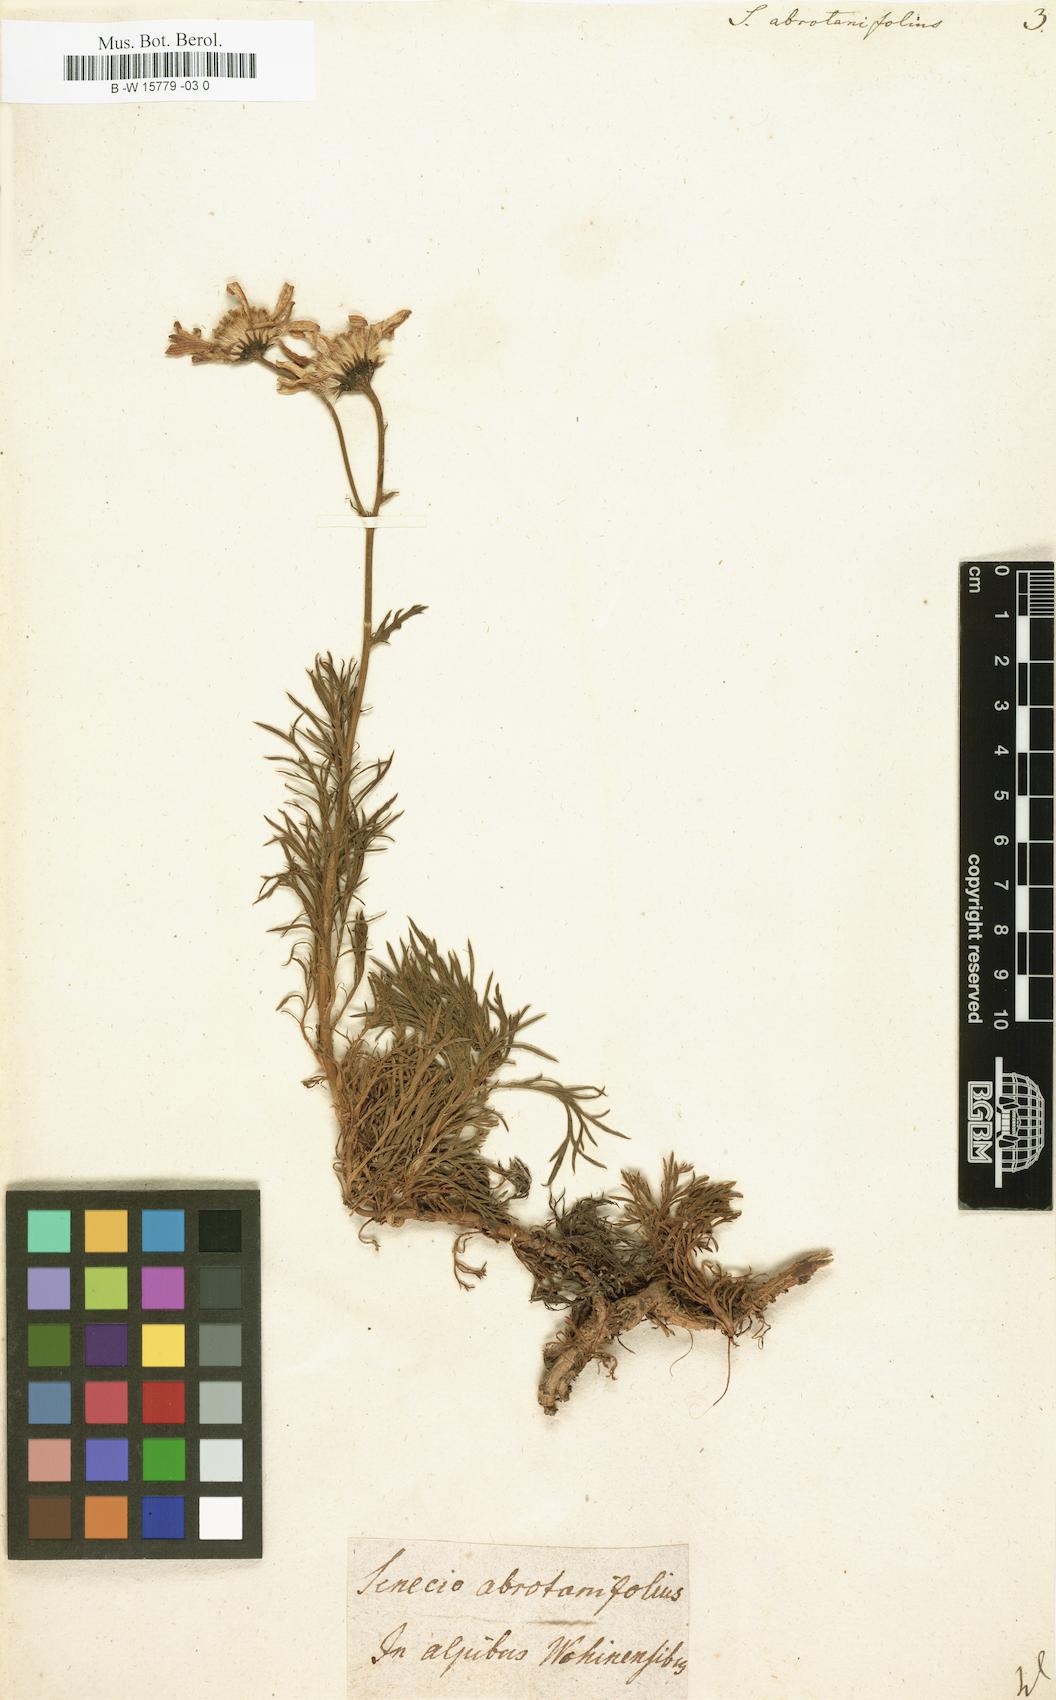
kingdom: Plantae
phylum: Tracheophyta
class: Magnoliopsida
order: Asterales
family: Asteraceae
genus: Jacobaea
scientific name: Jacobaea abrotanifolia
